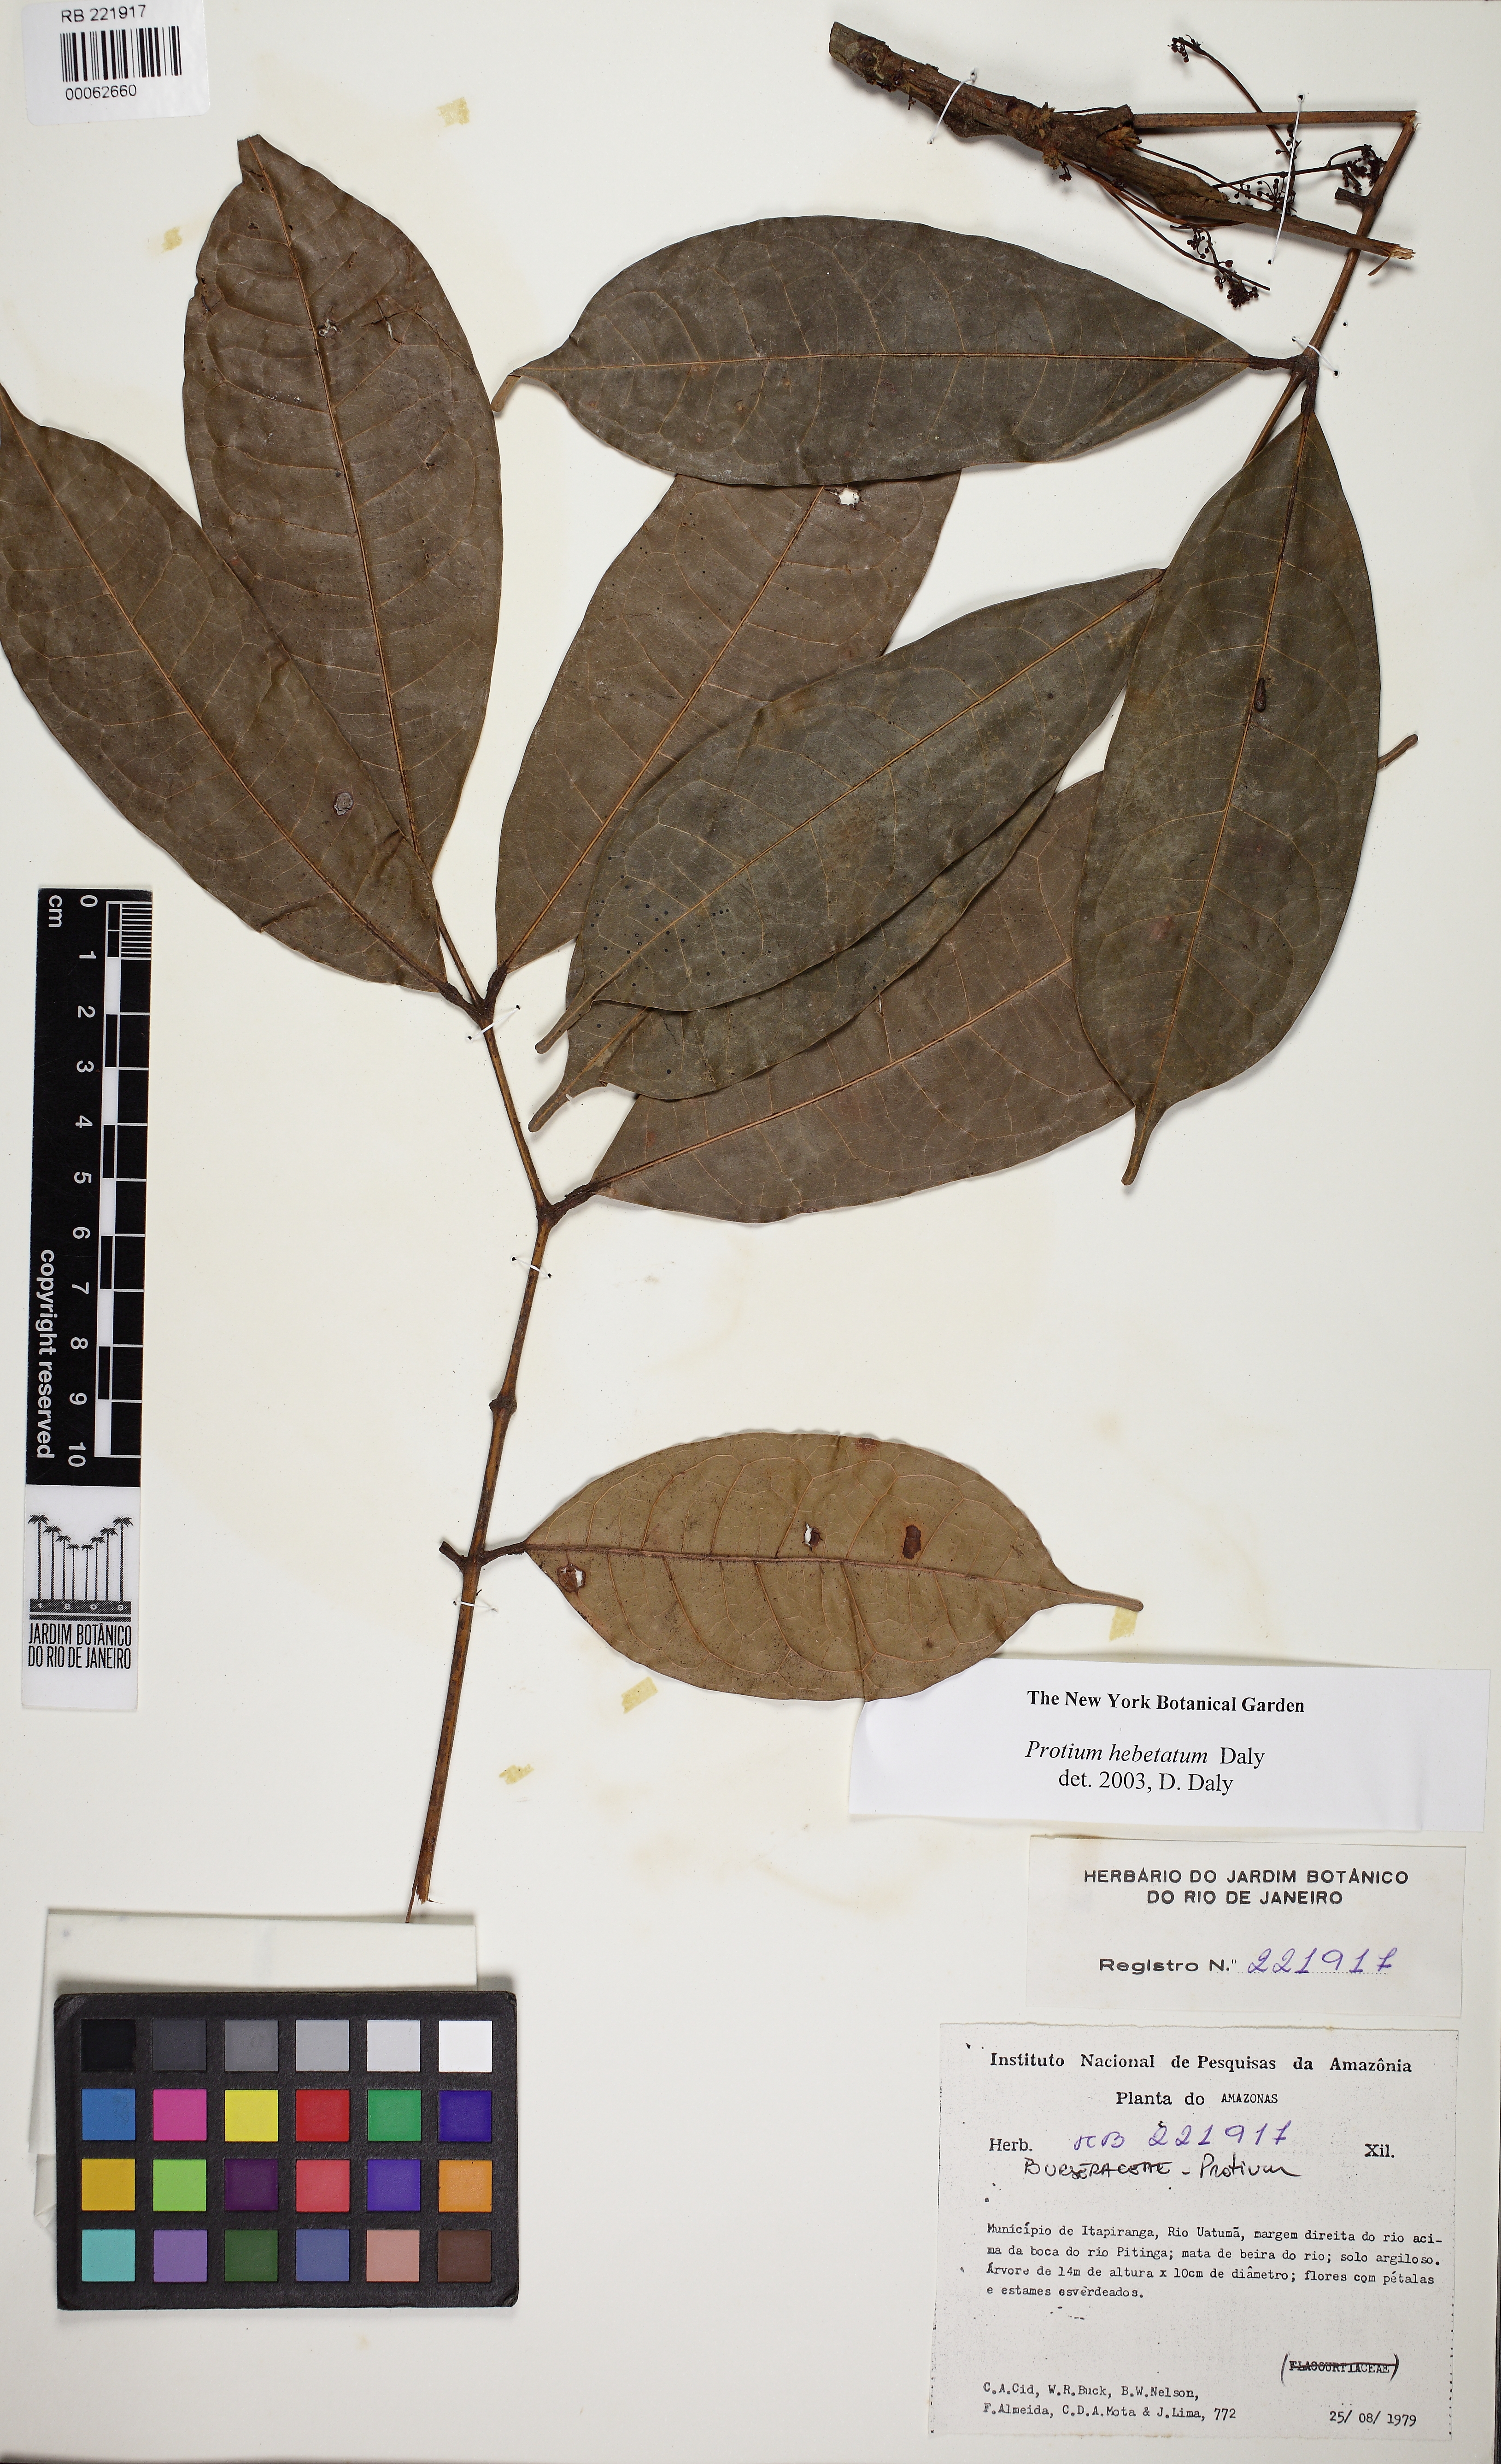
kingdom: Plantae
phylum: Tracheophyta
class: Magnoliopsida
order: Sapindales
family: Burseraceae
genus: Protium
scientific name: Protium hebetatum
